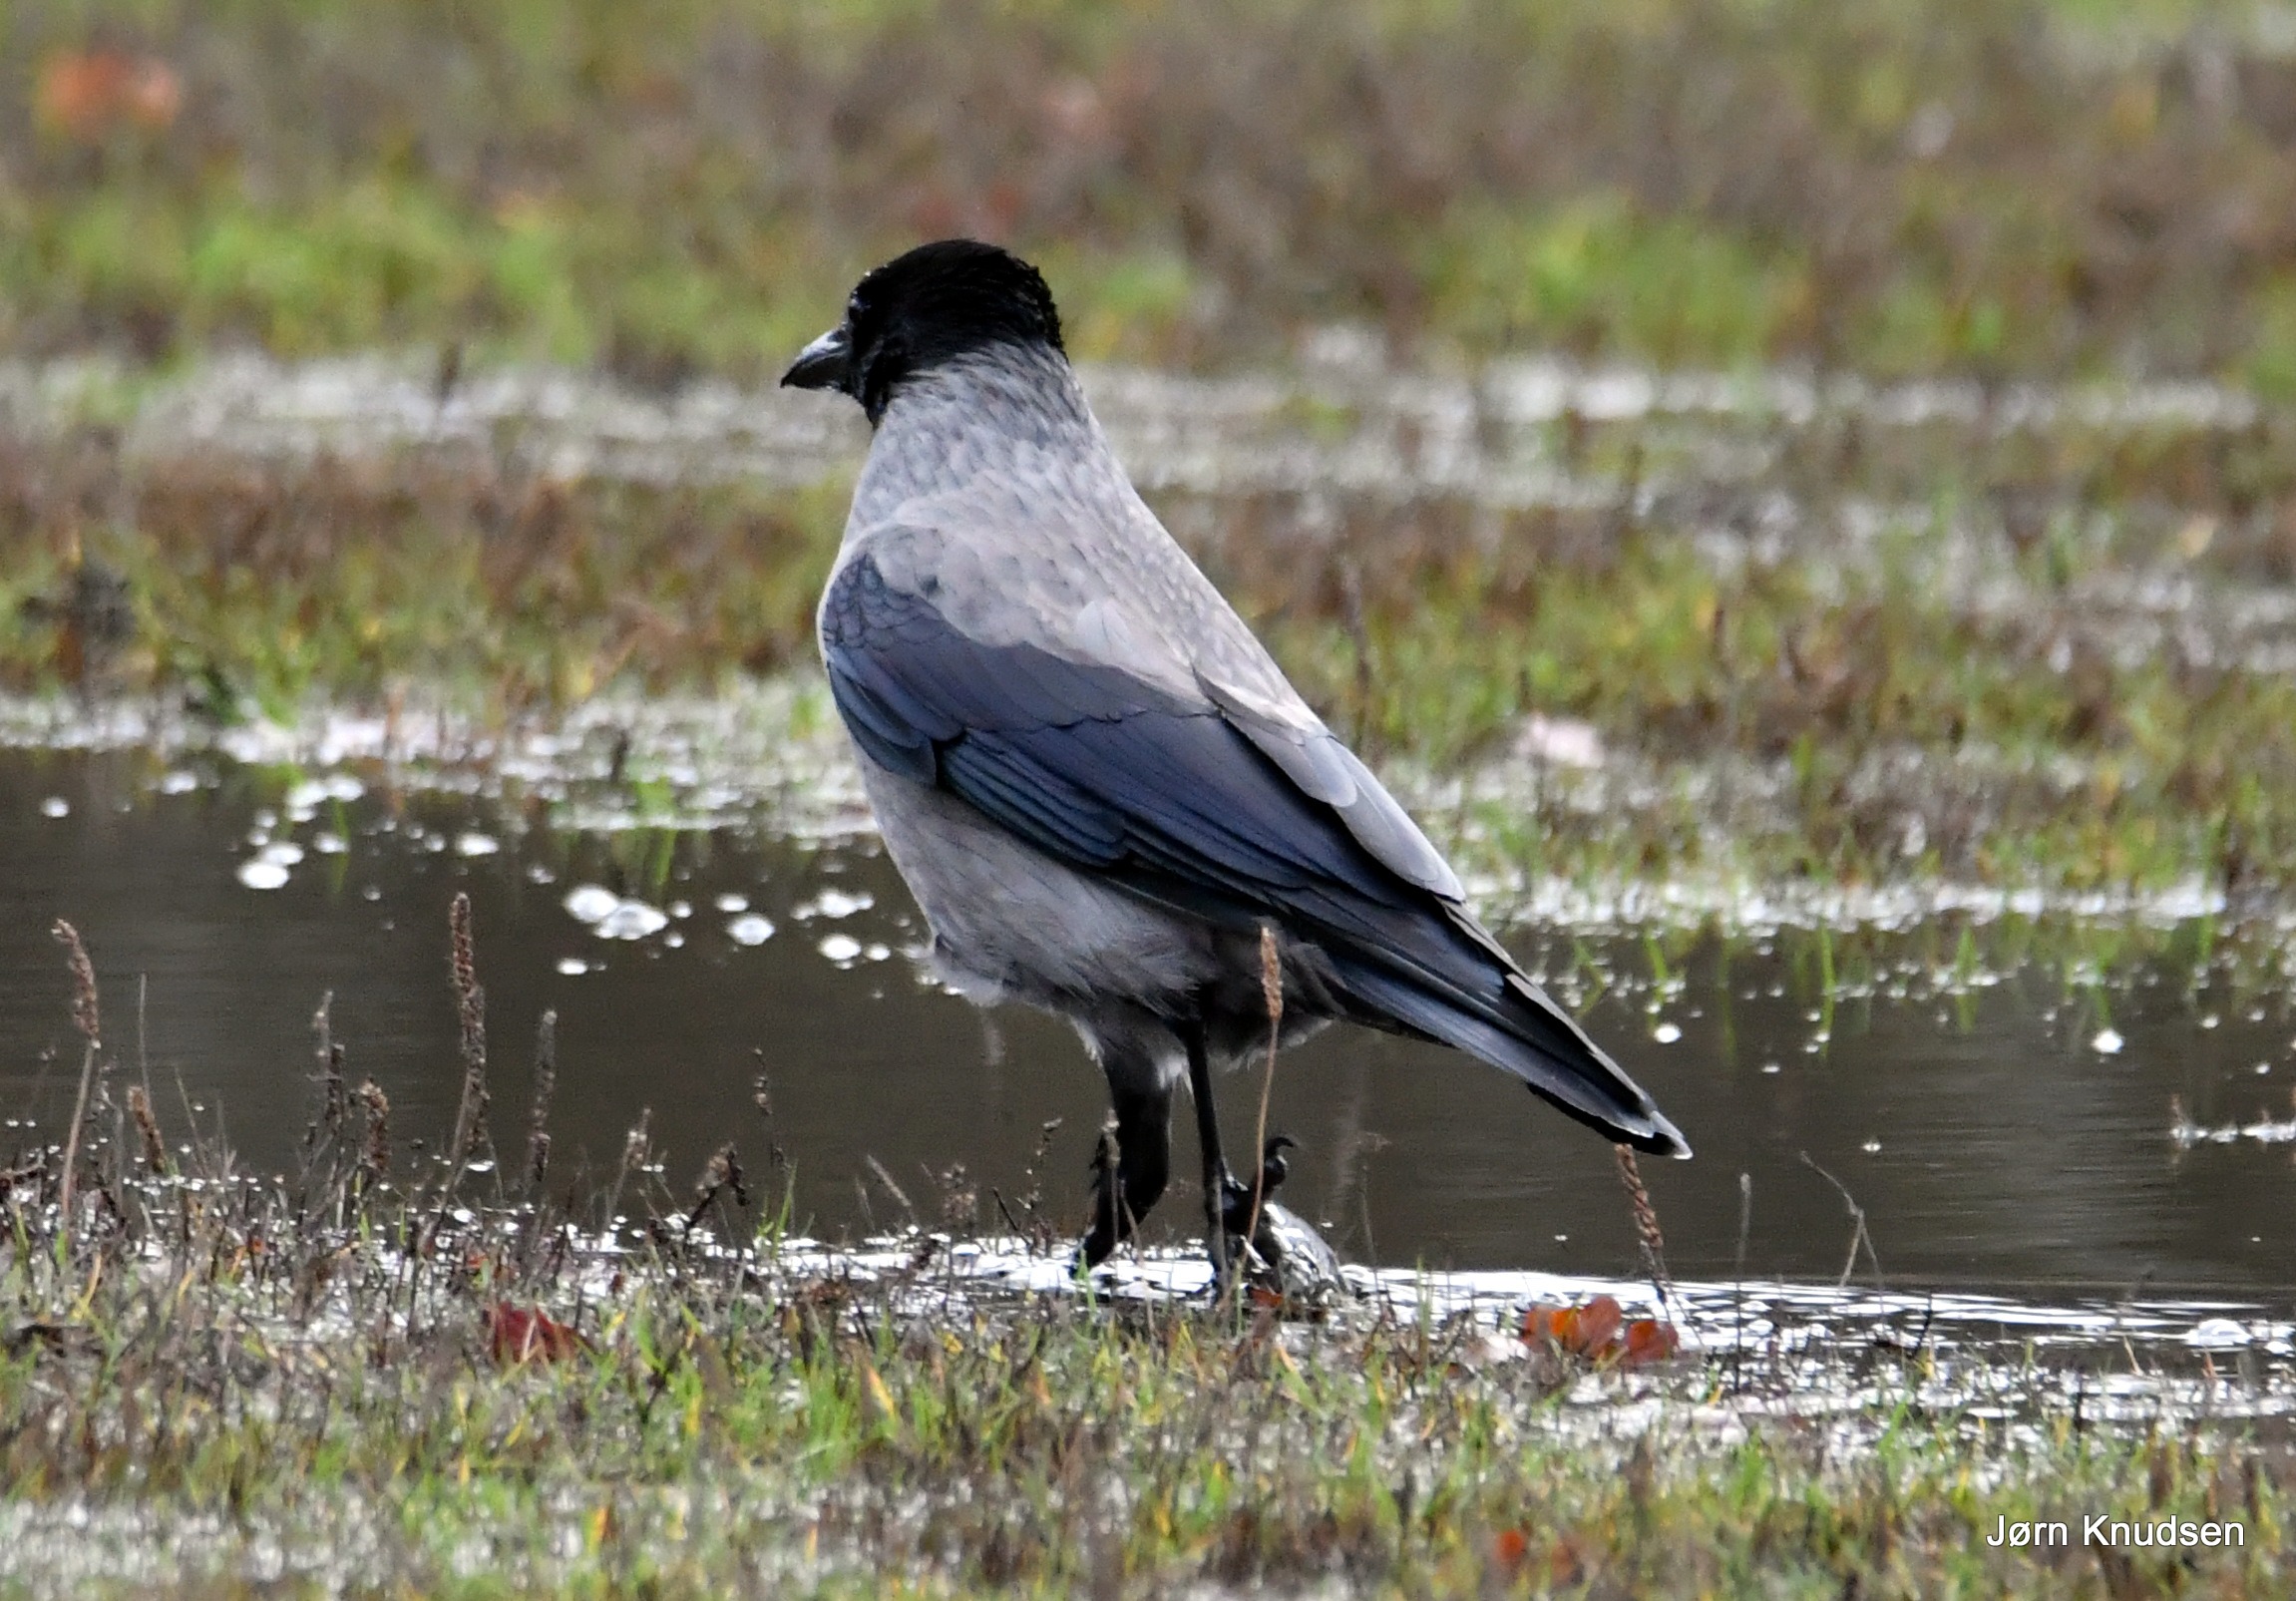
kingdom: Animalia
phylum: Chordata
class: Aves
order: Passeriformes
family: Corvidae
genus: Corvus
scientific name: Corvus cornix
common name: Gråkrage
